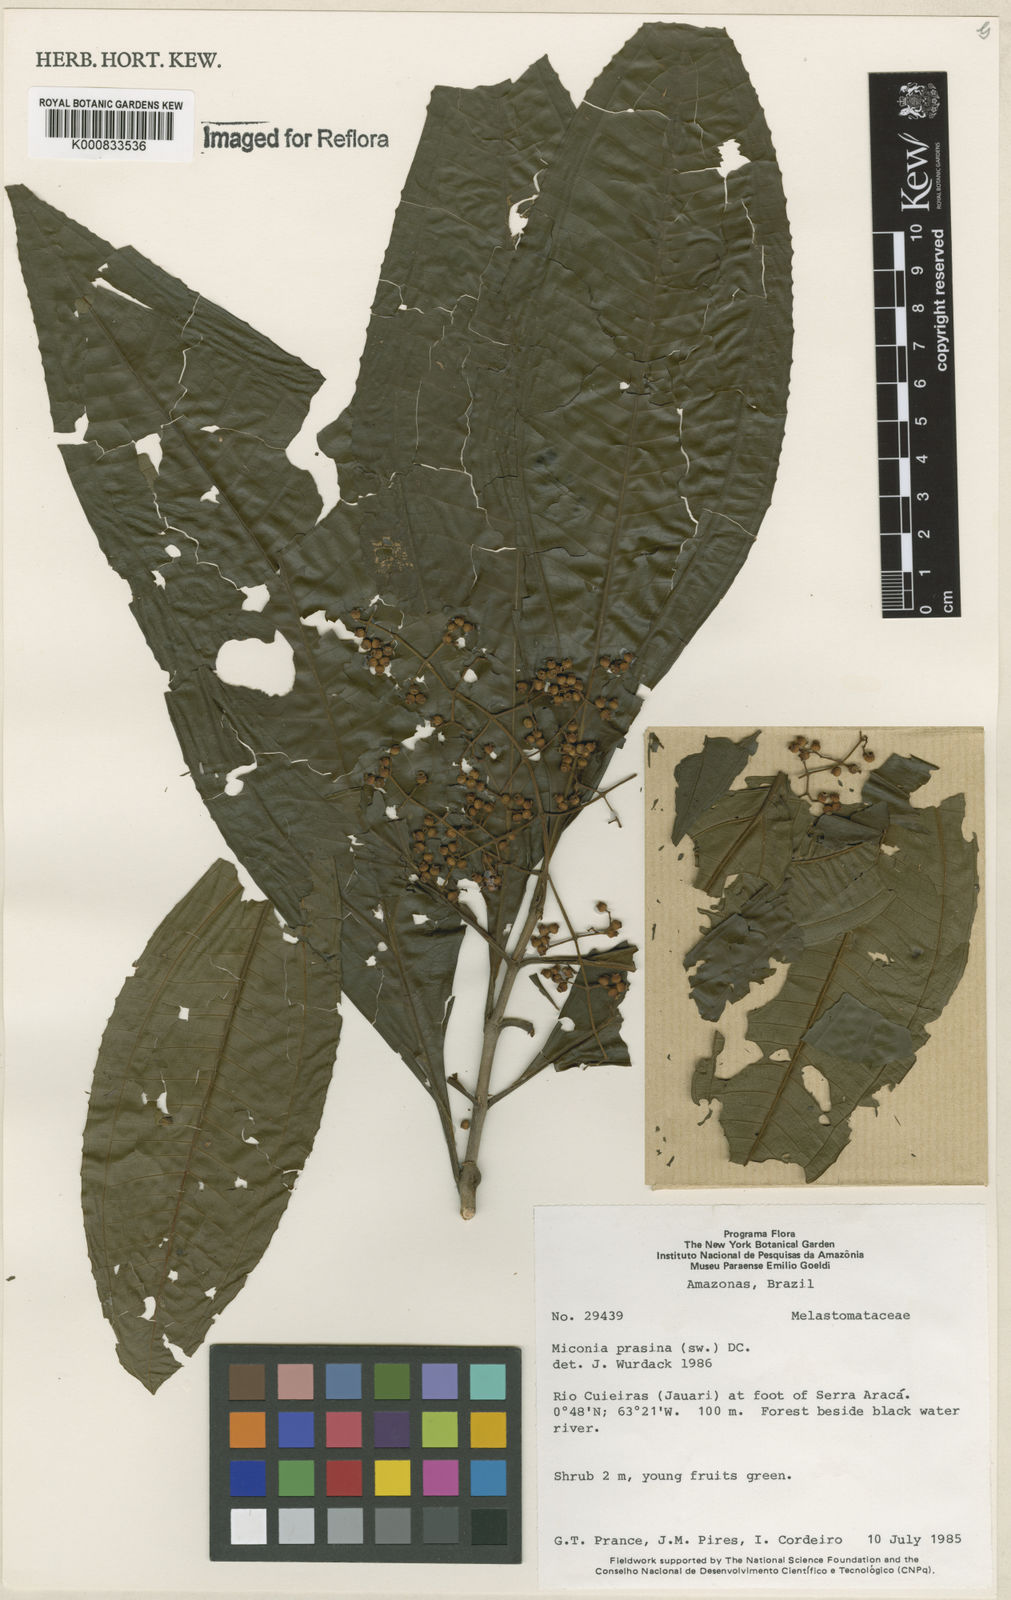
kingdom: Plantae
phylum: Tracheophyta
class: Magnoliopsida
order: Myrtales
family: Melastomataceae
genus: Miconia
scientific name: Miconia prasina
